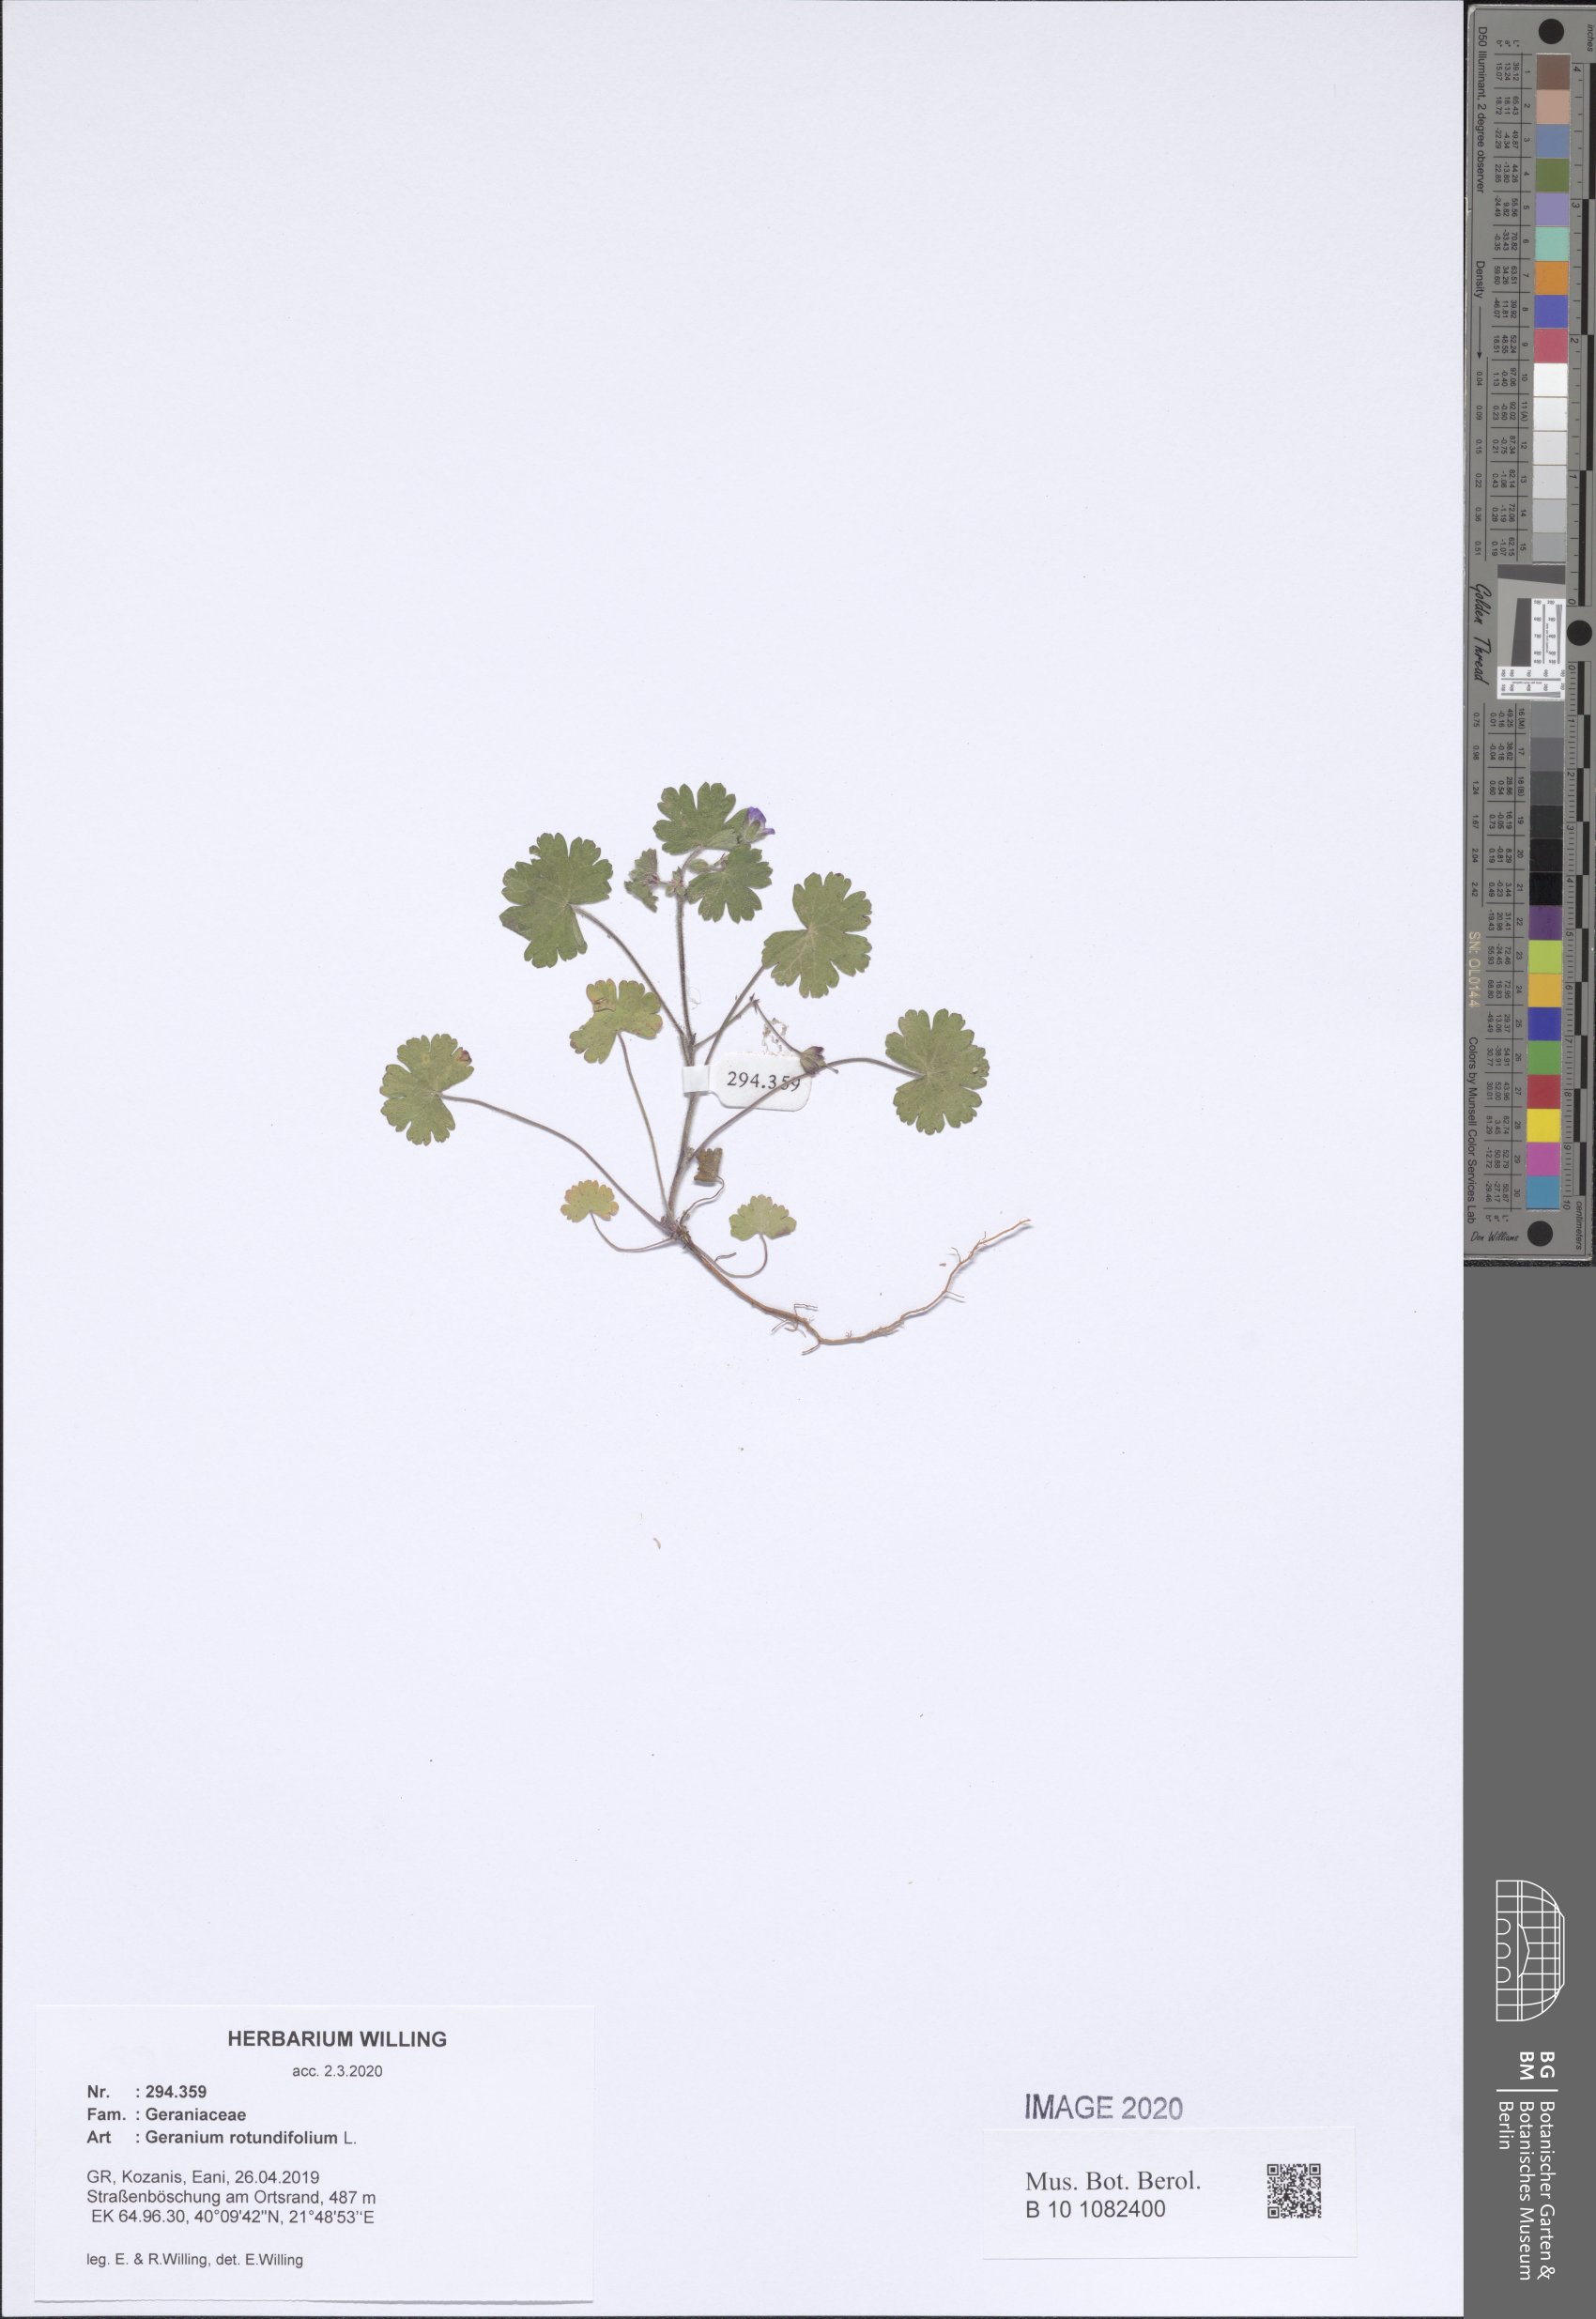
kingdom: Plantae
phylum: Tracheophyta
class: Magnoliopsida
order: Geraniales
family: Geraniaceae
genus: Geranium
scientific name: Geranium rotundifolium
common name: Round-leaved crane's-bill
